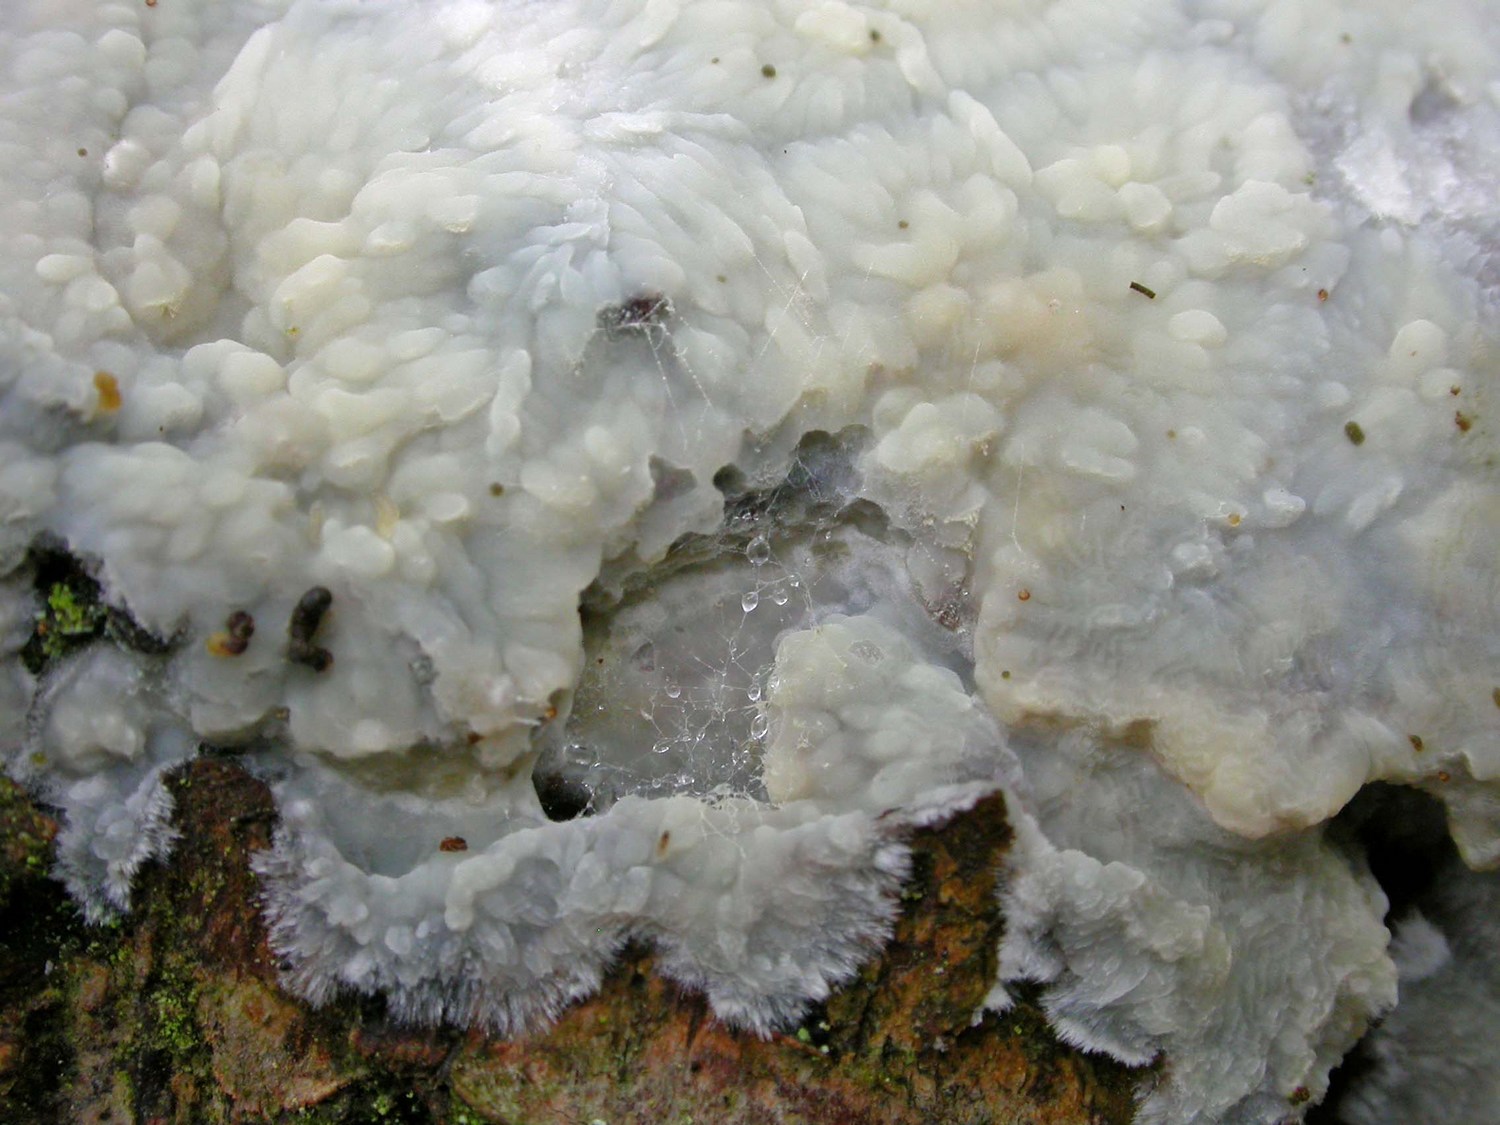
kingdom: Fungi
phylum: Basidiomycota
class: Agaricomycetes
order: Agaricales
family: Radulomycetaceae
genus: Radulomyces
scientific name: Radulomyces confluens
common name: glat naftalinskind
